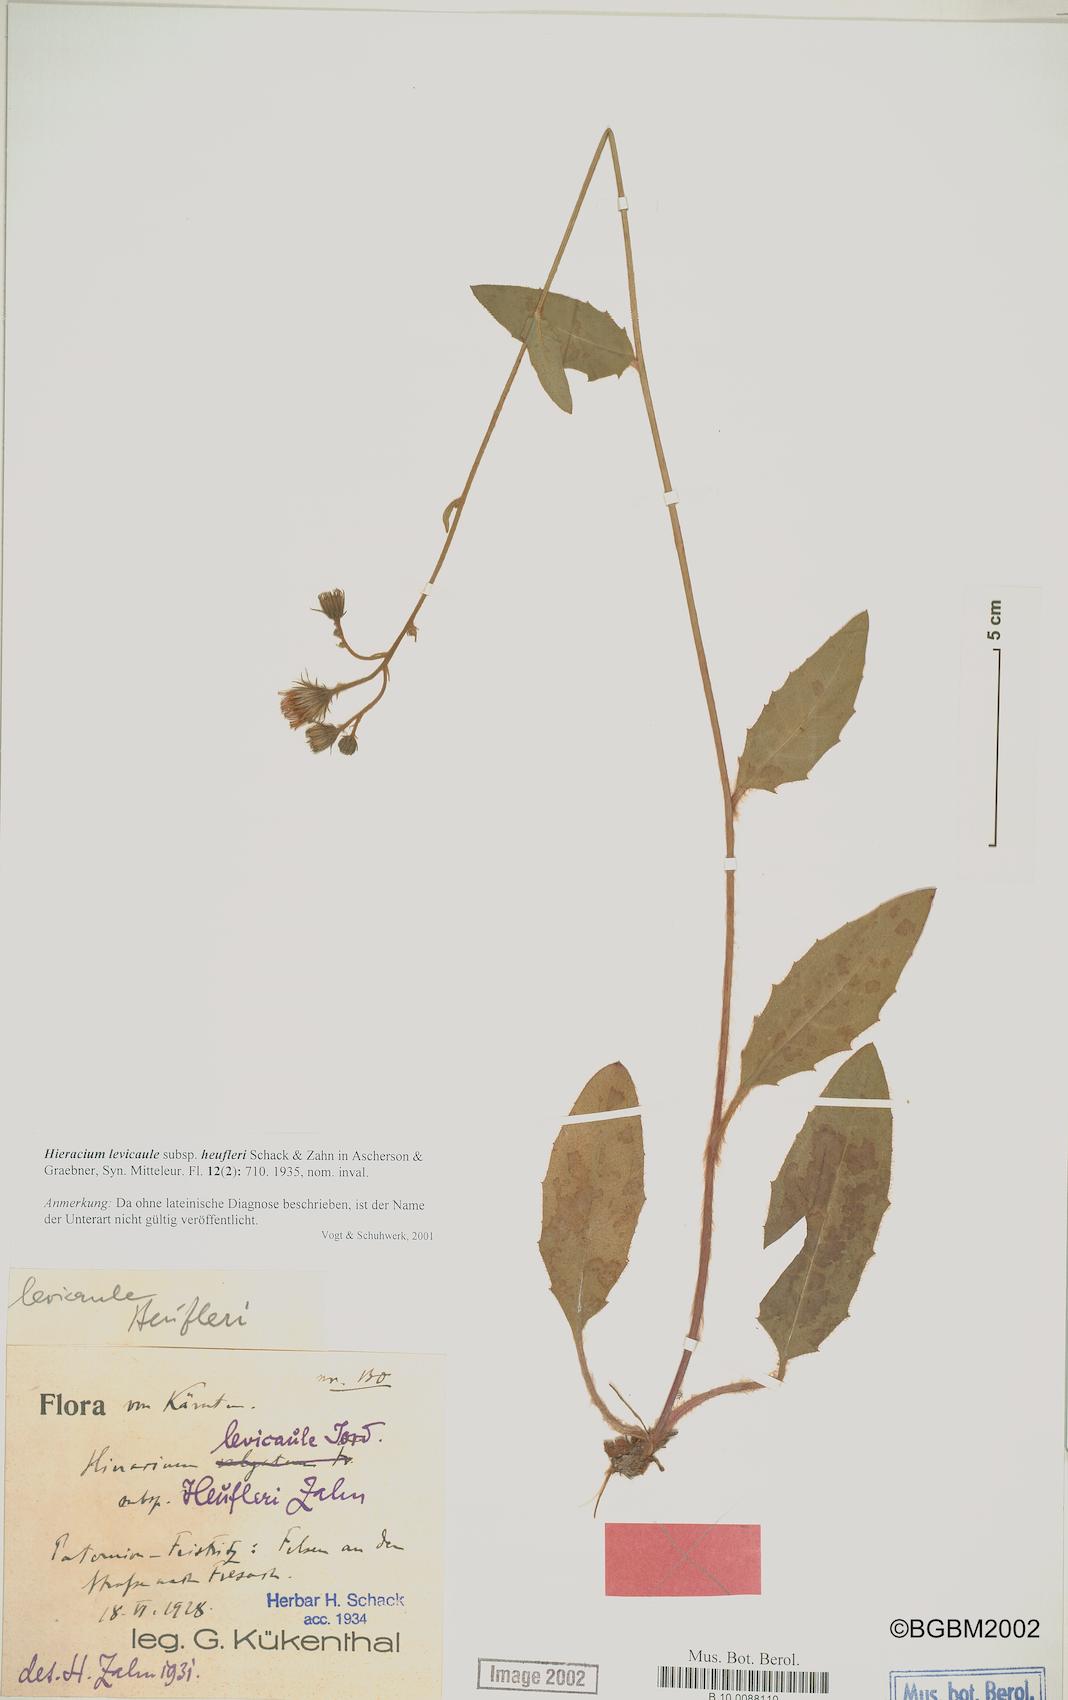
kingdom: Plantae
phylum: Tracheophyta
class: Magnoliopsida
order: Asterales
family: Asteraceae
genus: Hieracium
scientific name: Hieracium
